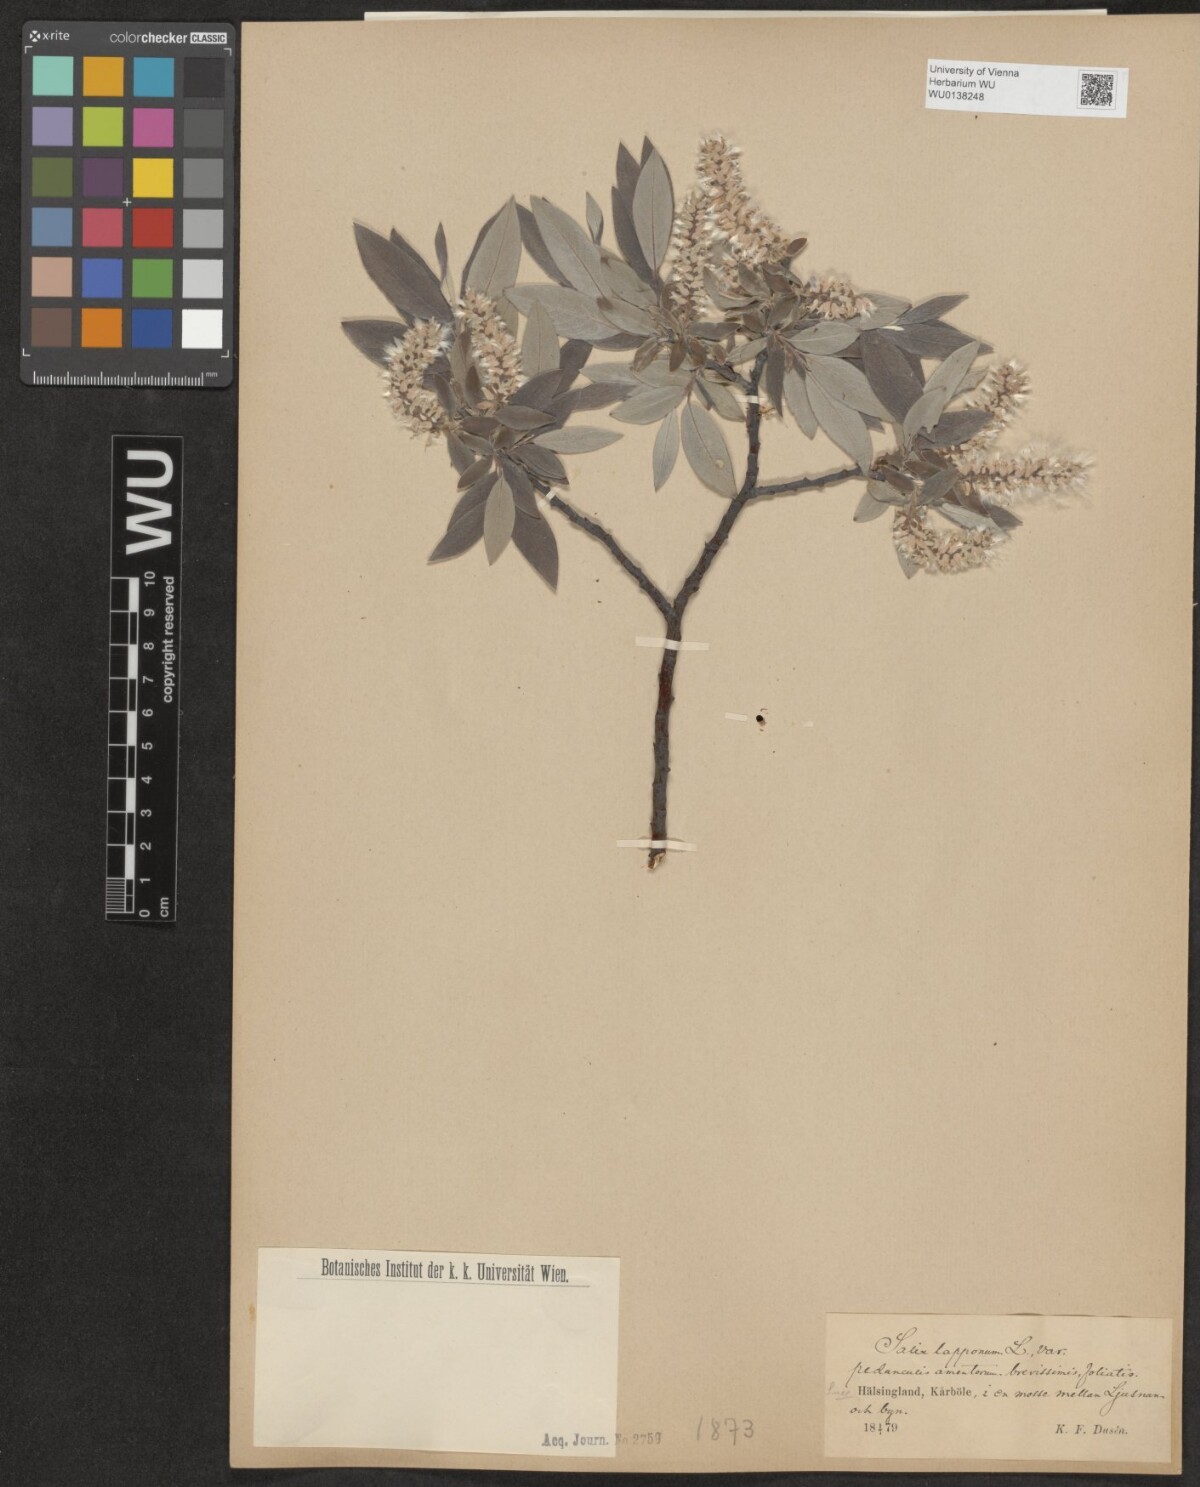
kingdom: Plantae
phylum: Tracheophyta
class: Magnoliopsida
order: Malpighiales
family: Salicaceae
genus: Salix
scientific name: Salix lapponum
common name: Downy willow
